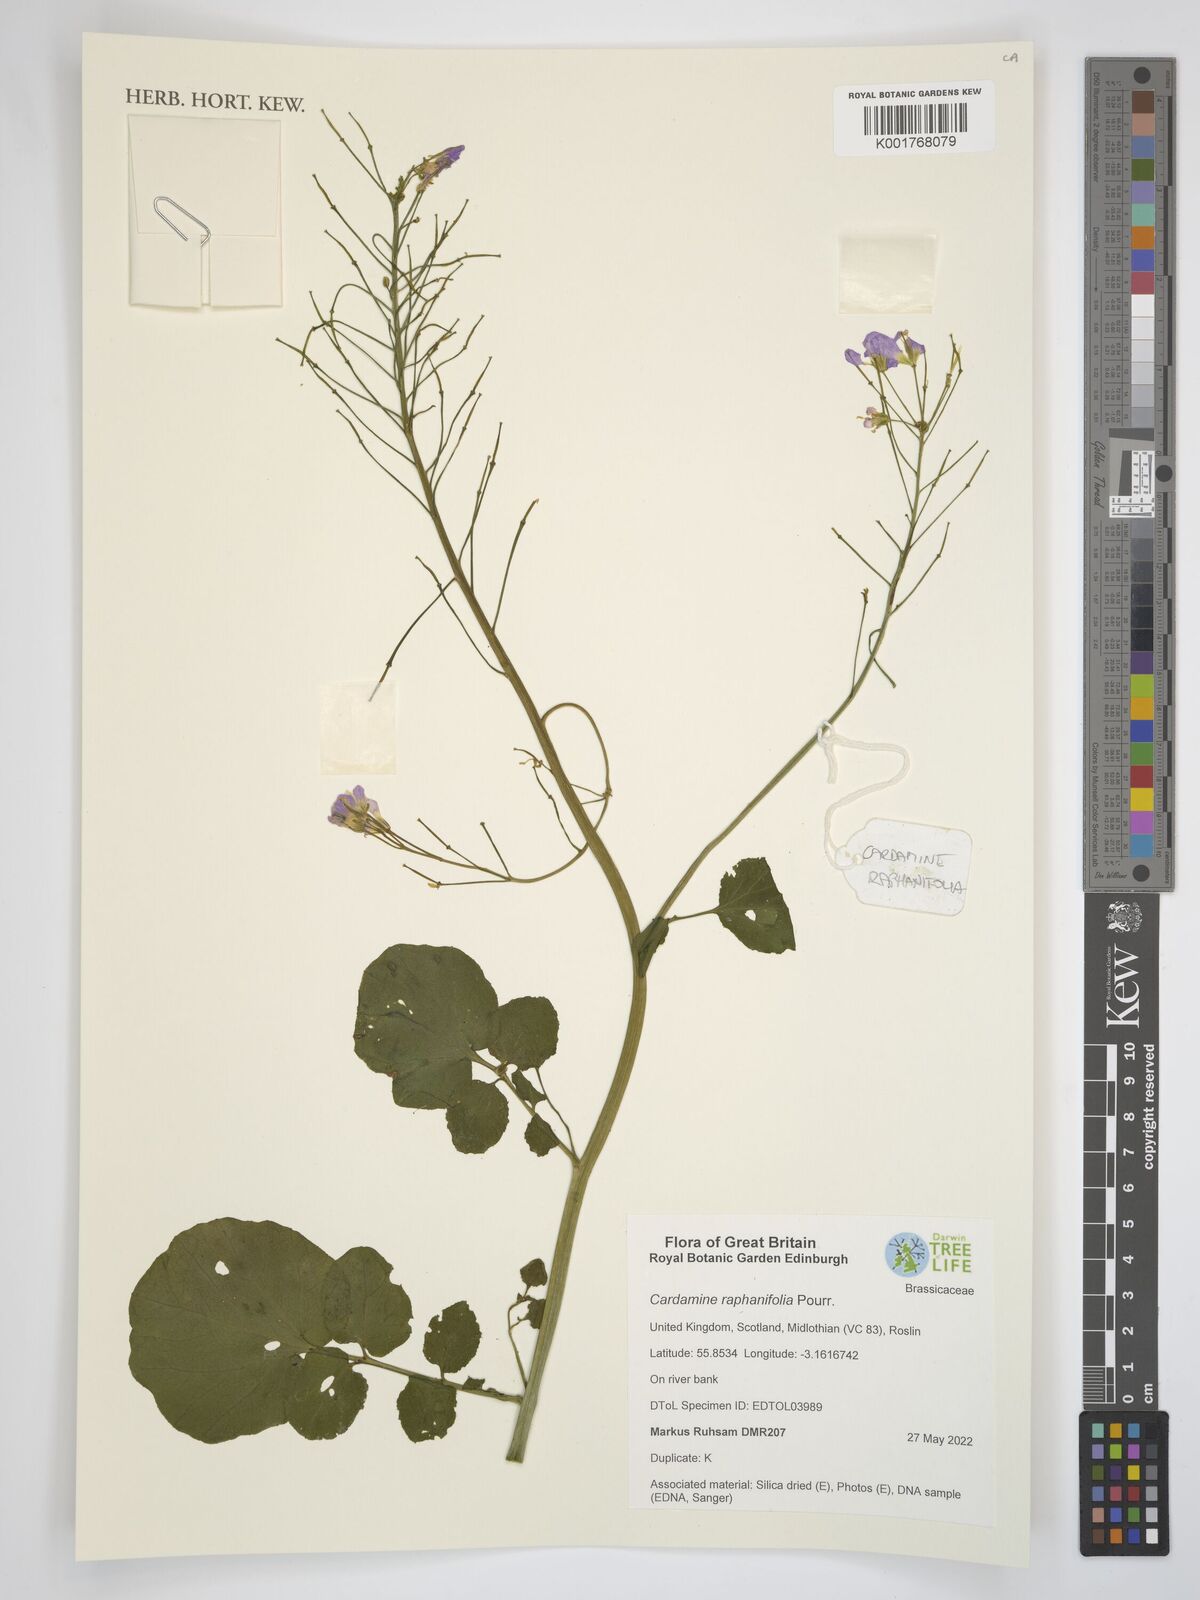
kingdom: Plantae
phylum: Tracheophyta
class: Magnoliopsida
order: Brassicales
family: Brassicaceae
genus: Cardamine
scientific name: Cardamine raphanifolia
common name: Greater cuckooflower
